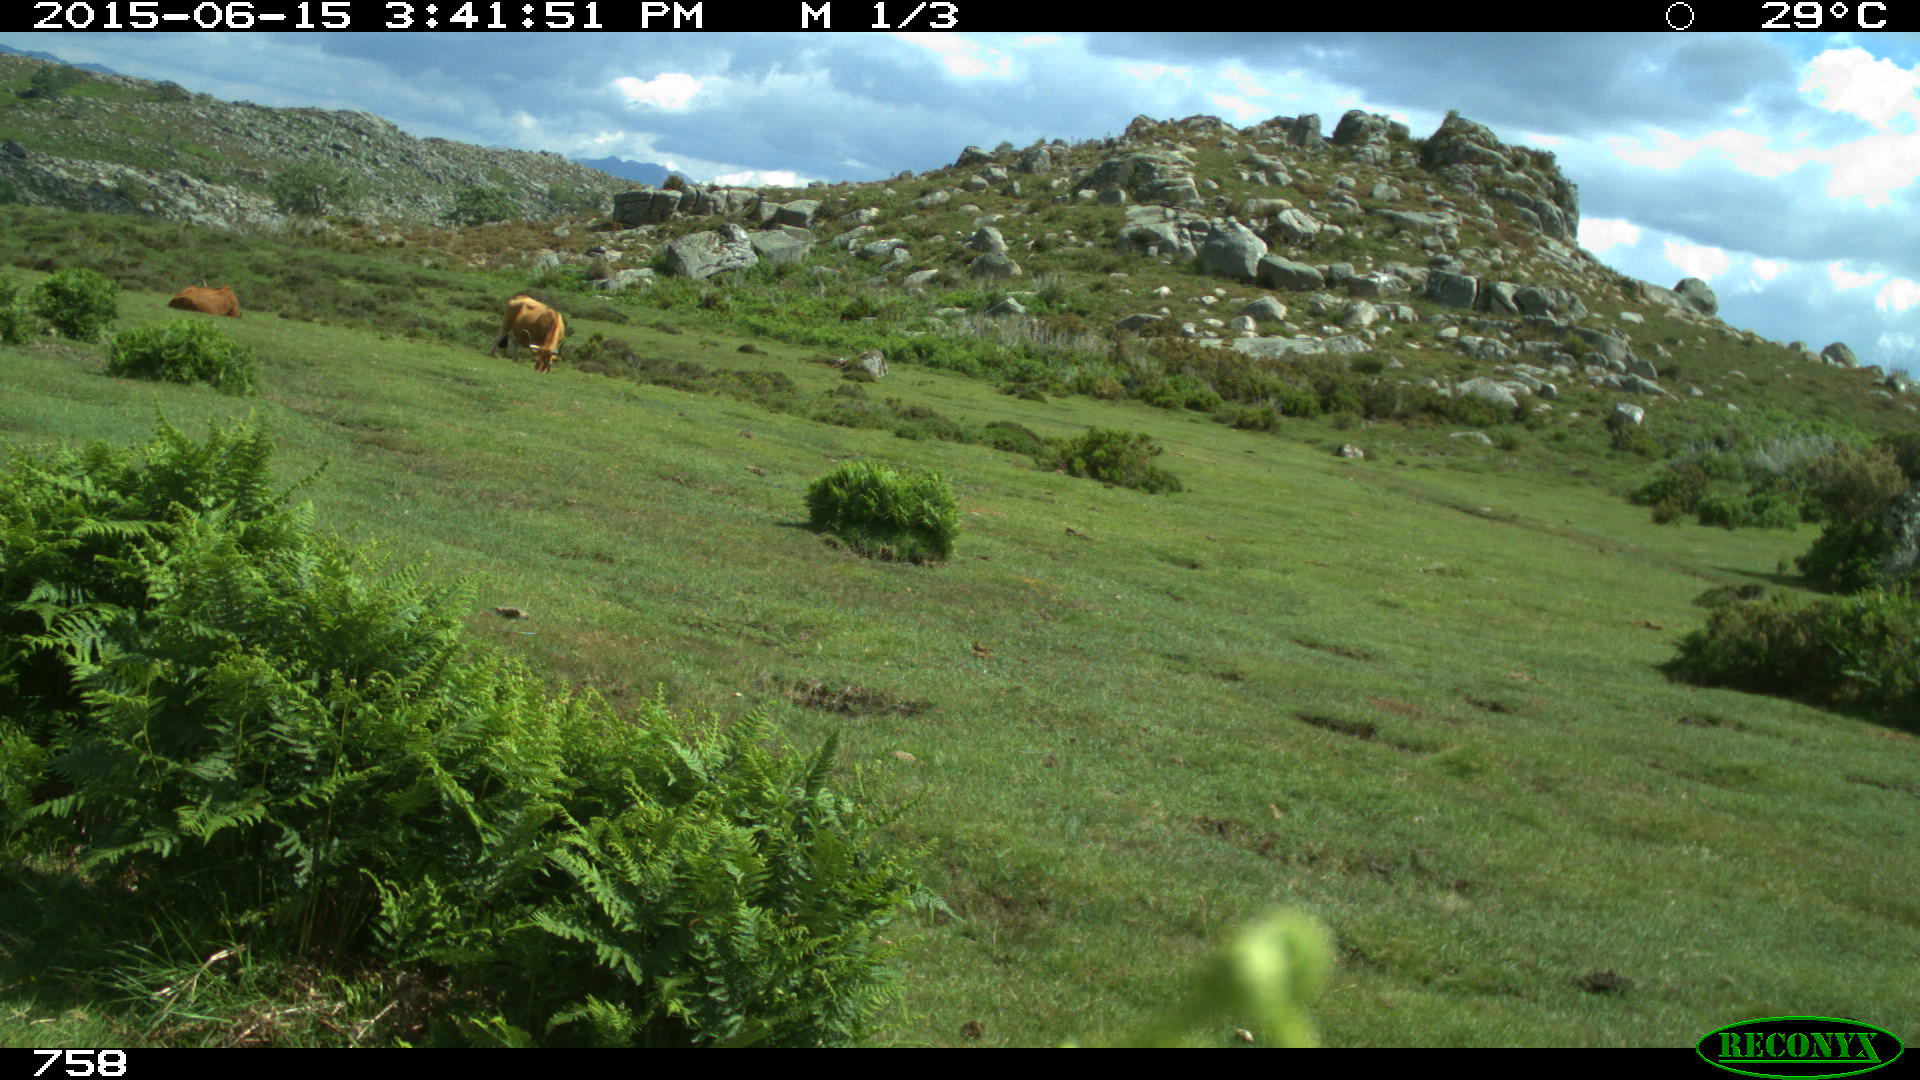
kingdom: Animalia
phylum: Chordata
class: Mammalia
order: Artiodactyla
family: Bovidae
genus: Bos
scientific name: Bos taurus
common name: Domesticated cattle
